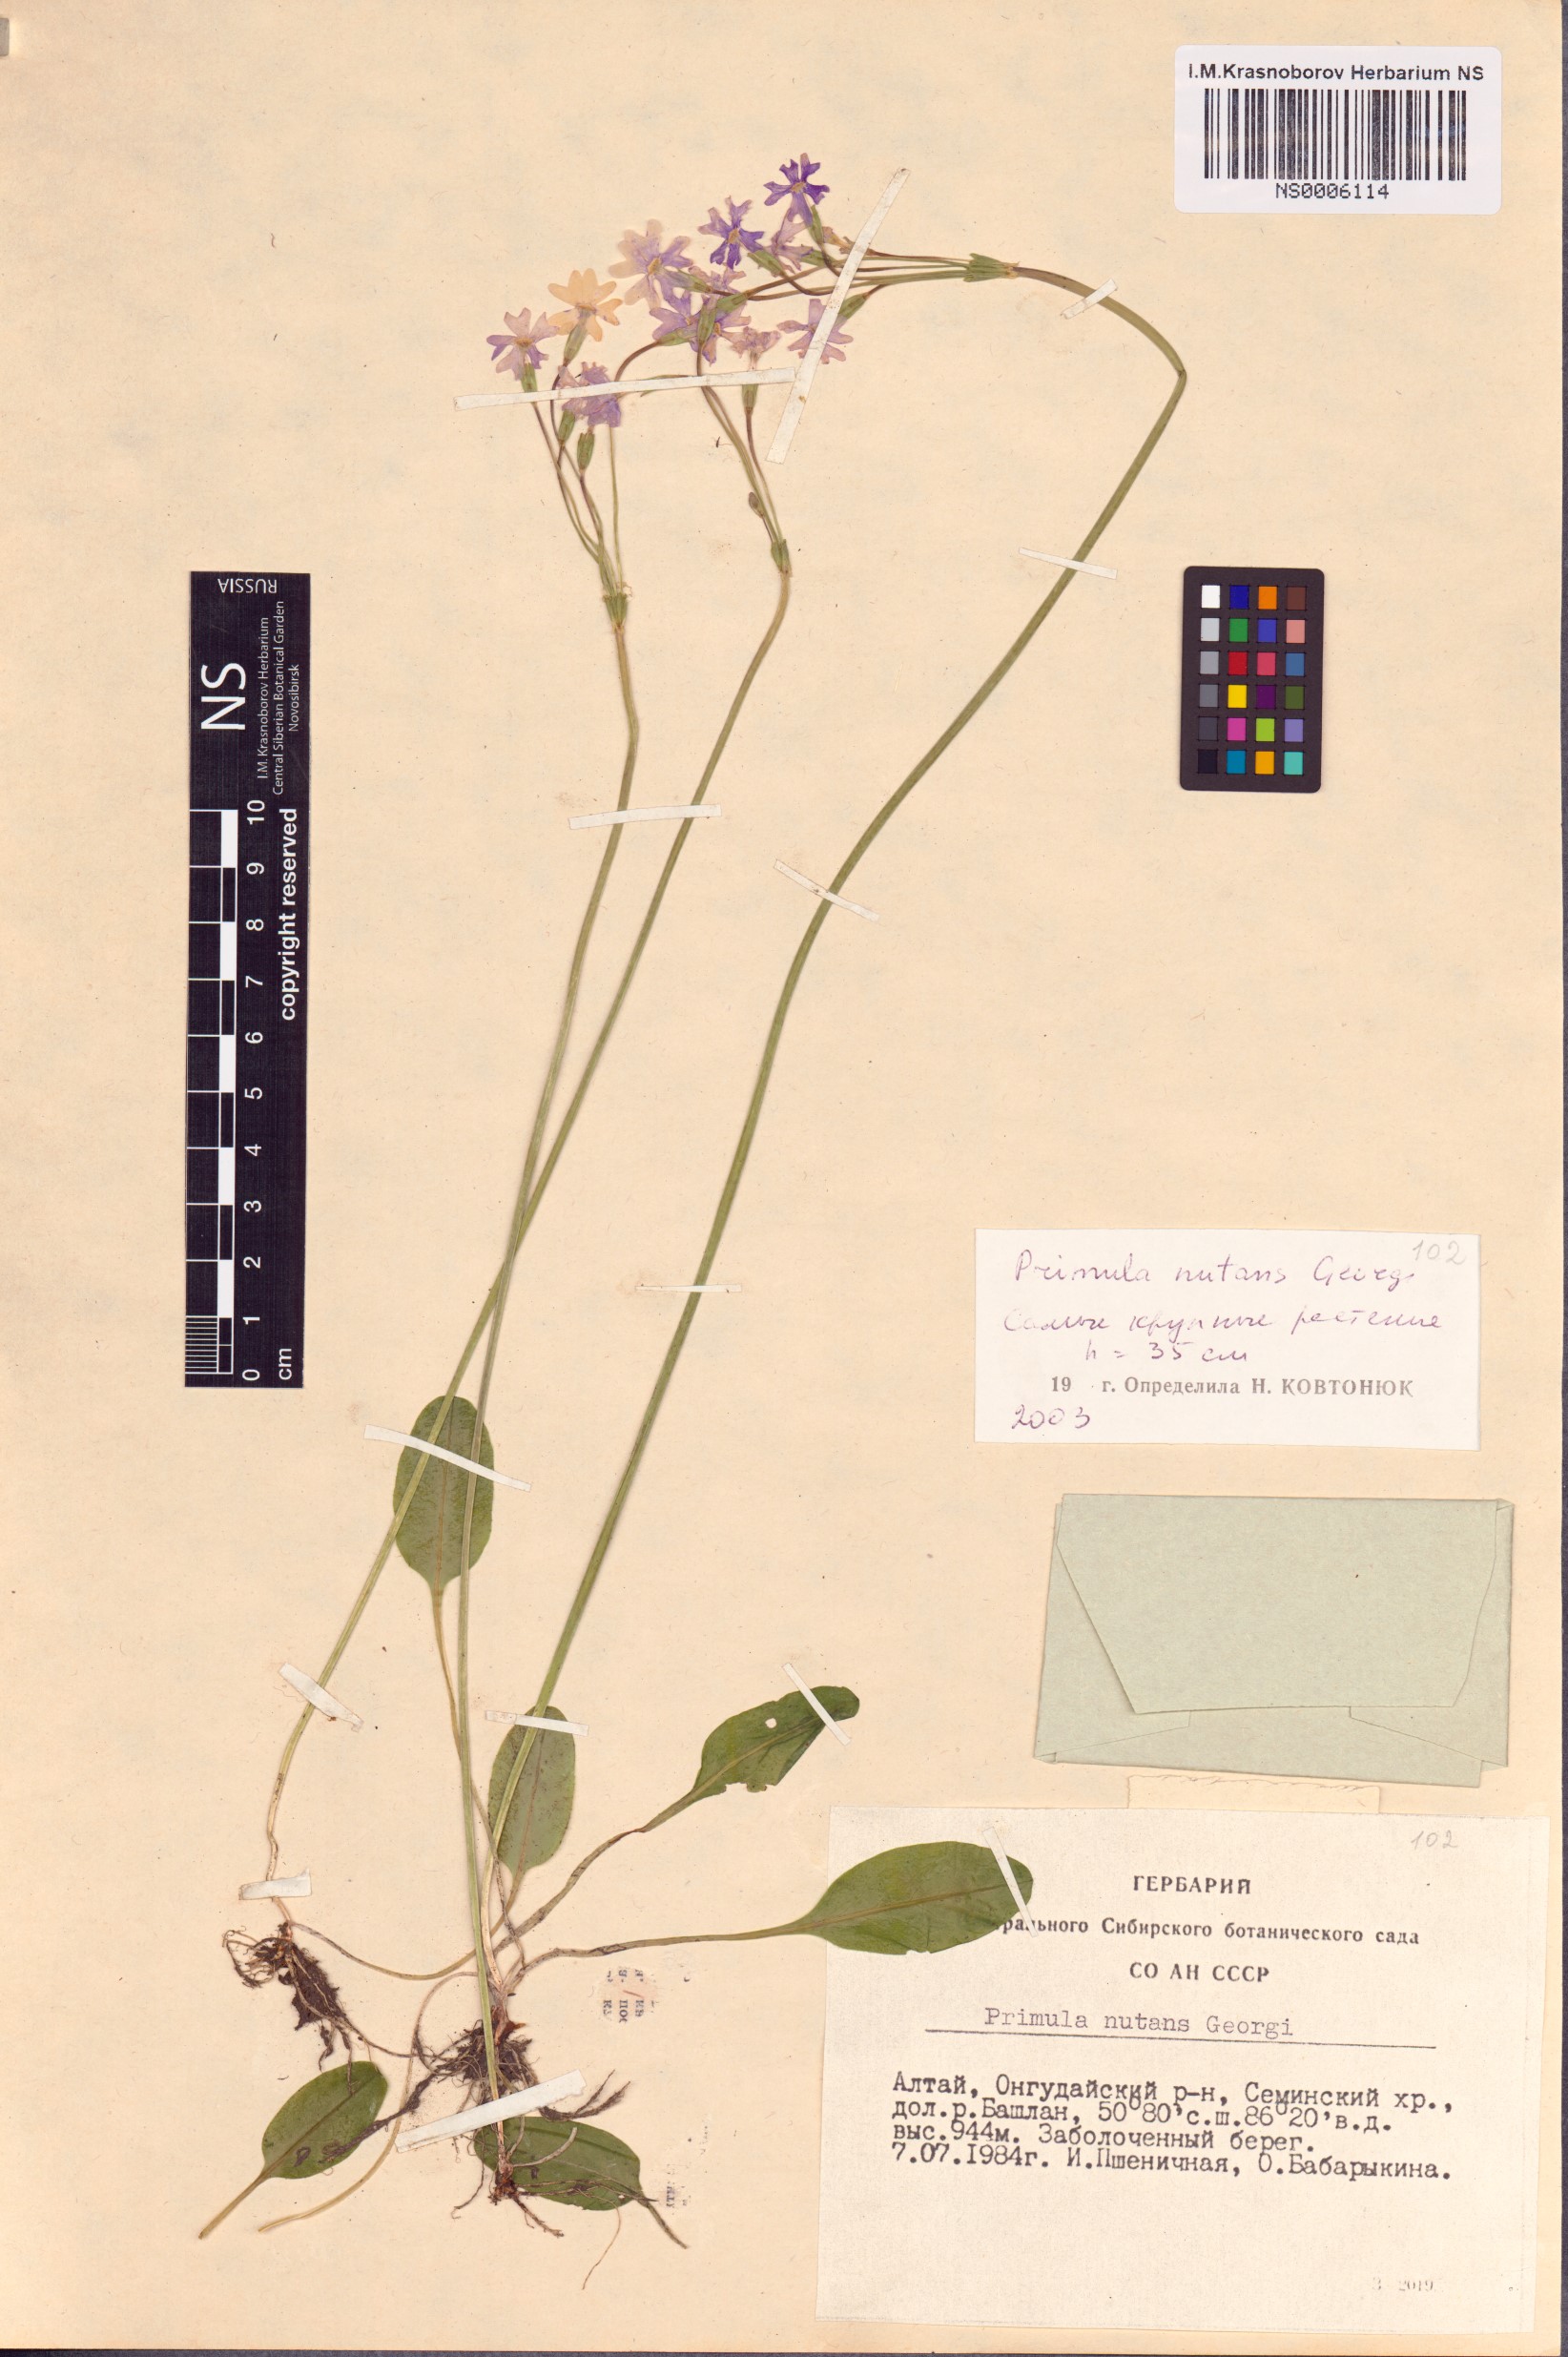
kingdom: Plantae
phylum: Tracheophyta
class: Magnoliopsida
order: Ericales
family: Primulaceae
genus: Primula
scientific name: Primula nutans
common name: Siberian primrose
